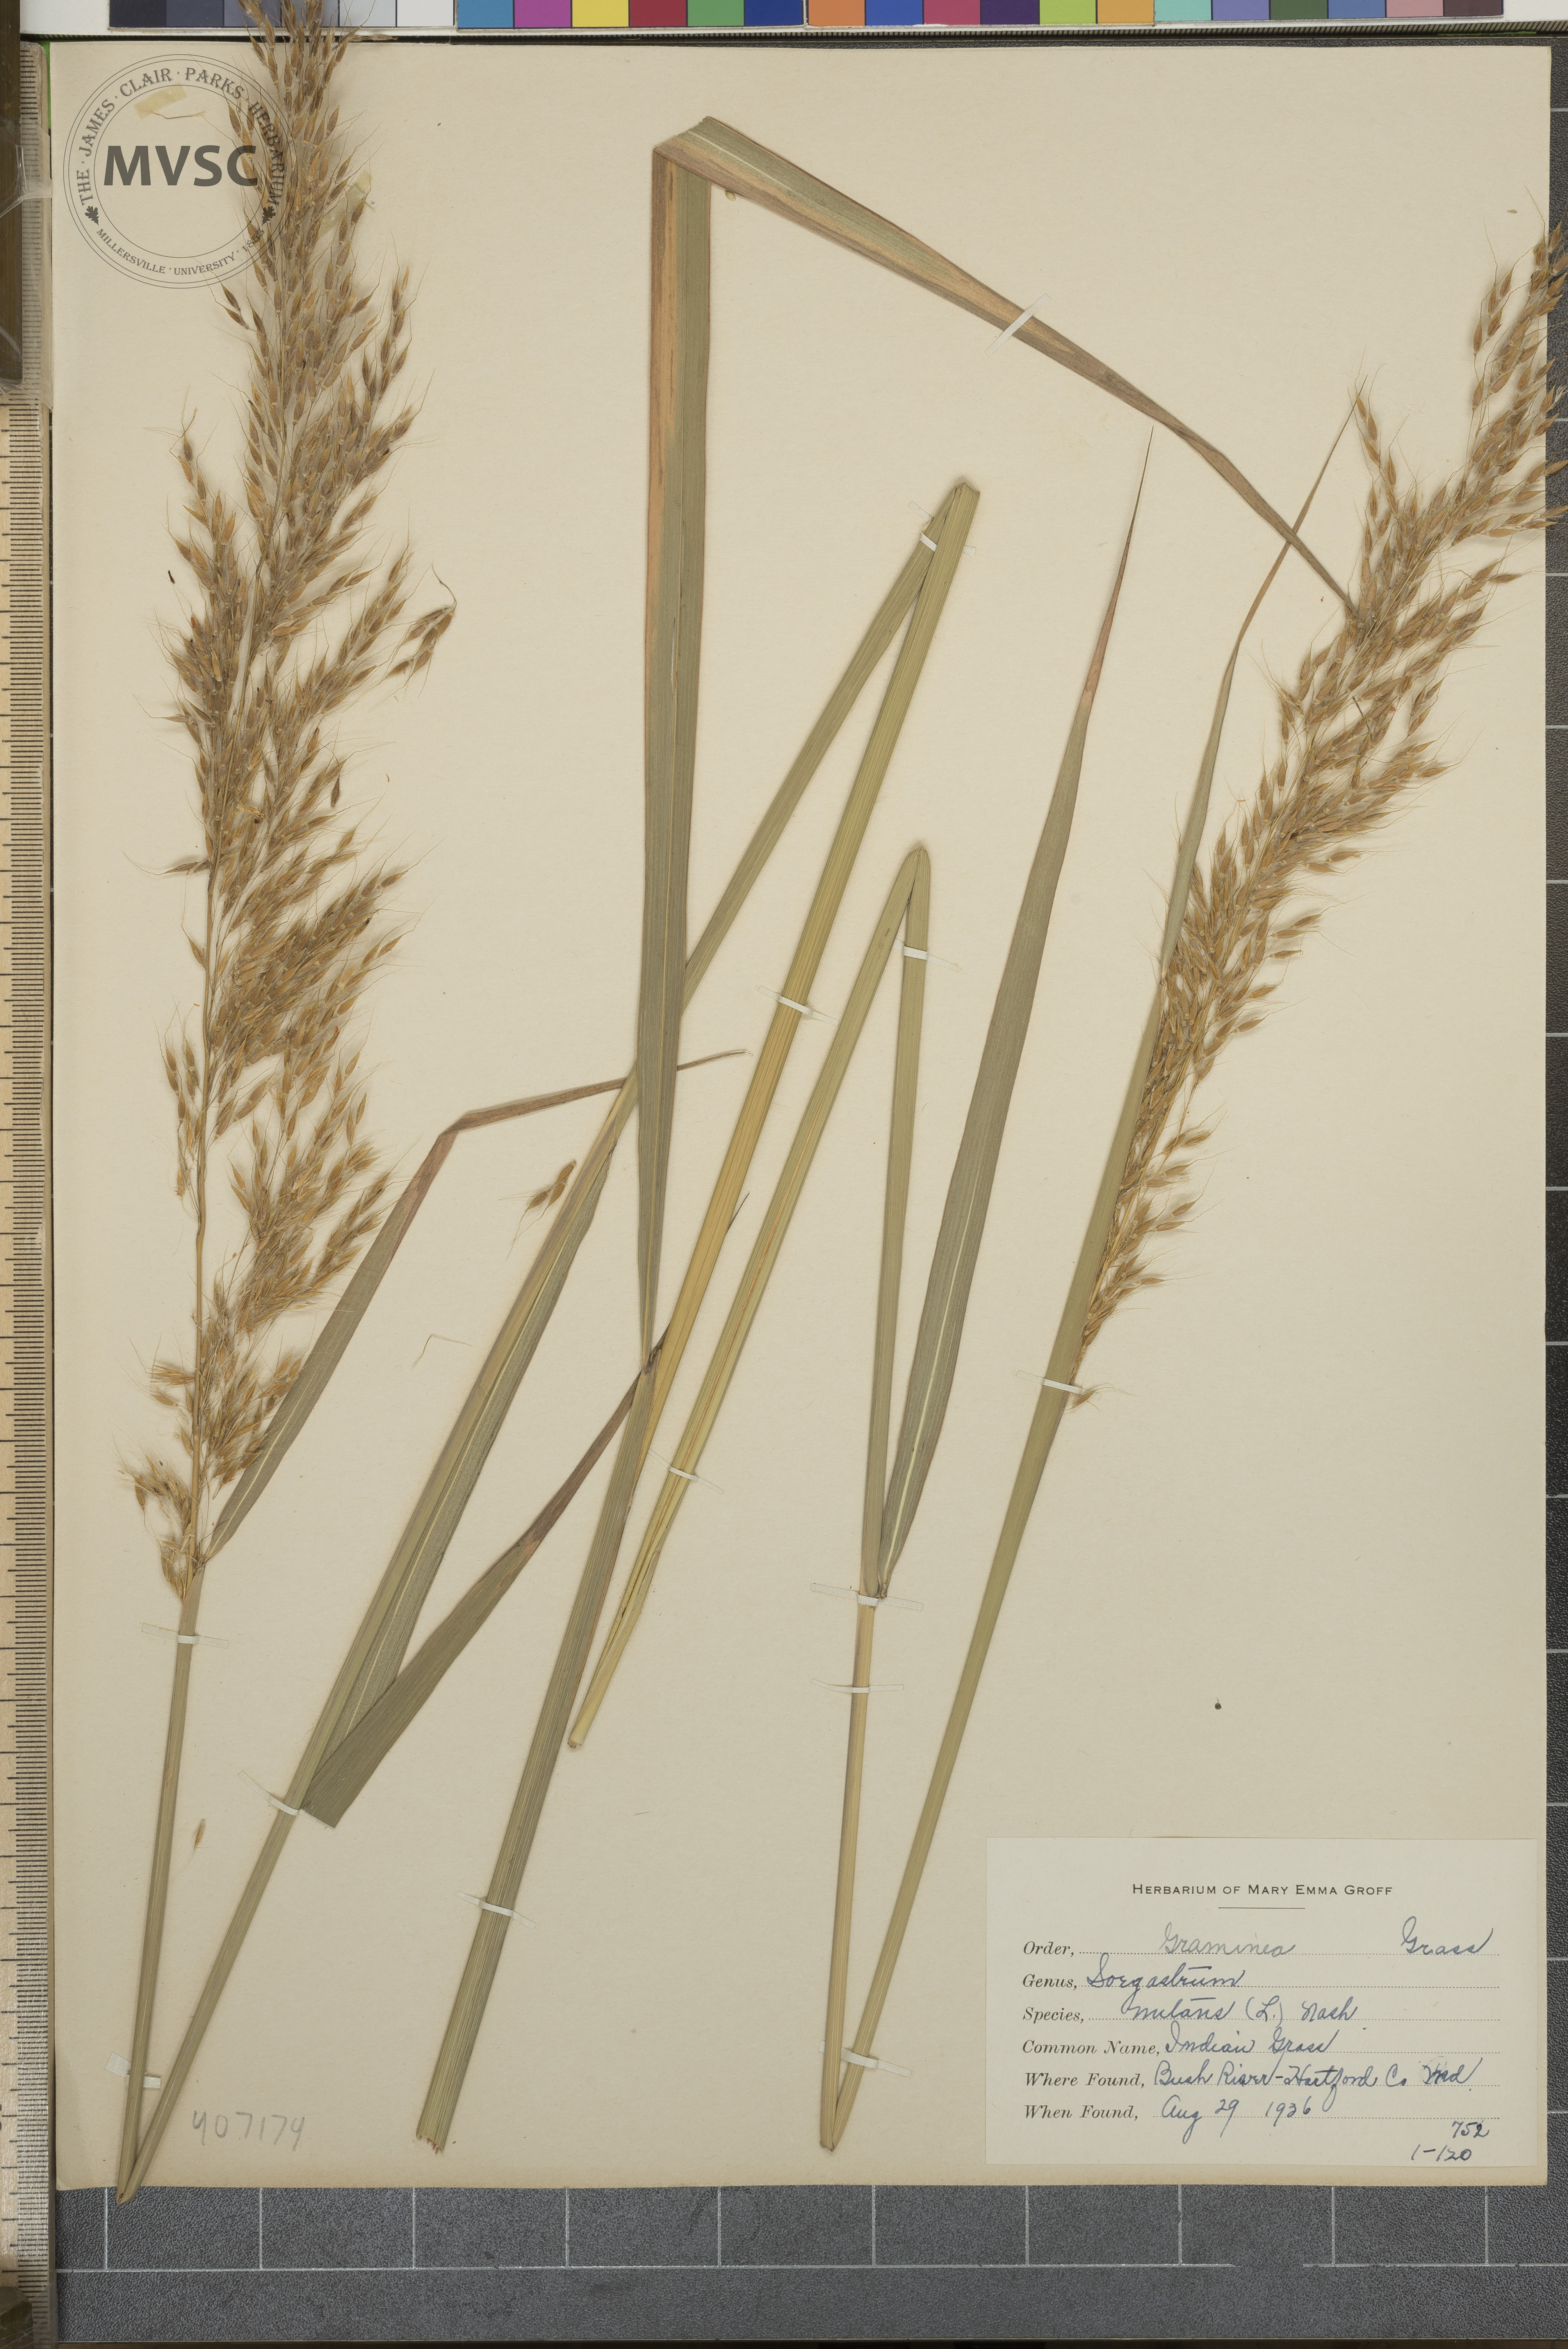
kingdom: Plantae
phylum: Tracheophyta
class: Liliopsida
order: Poales
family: Poaceae
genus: Sorghastrum
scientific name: Sorghastrum nutans
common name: Indian Grass
